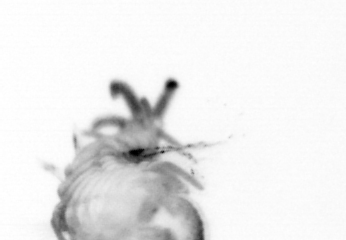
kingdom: Animalia
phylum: Annelida
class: Polychaeta
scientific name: Polychaeta
